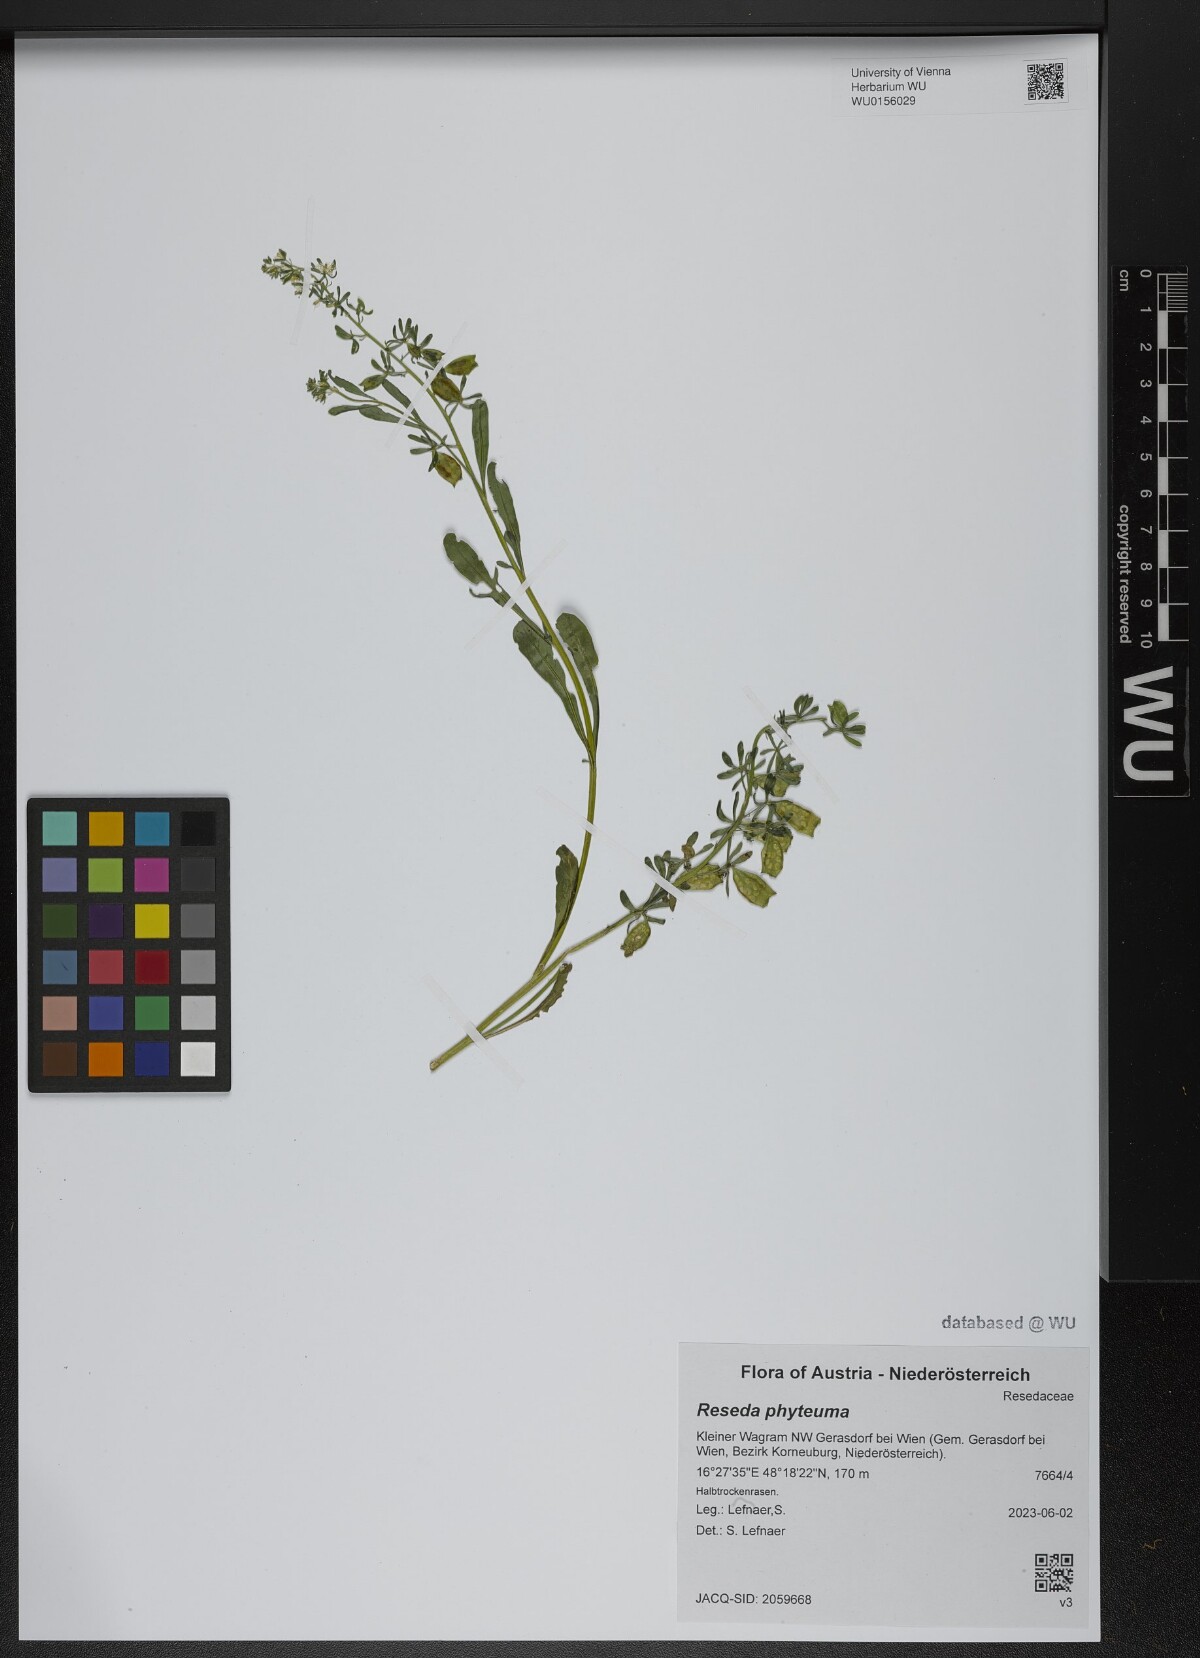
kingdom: Plantae
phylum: Tracheophyta
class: Magnoliopsida
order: Brassicales
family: Resedaceae
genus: Reseda
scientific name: Reseda phyteuma
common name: Corn mignonette
